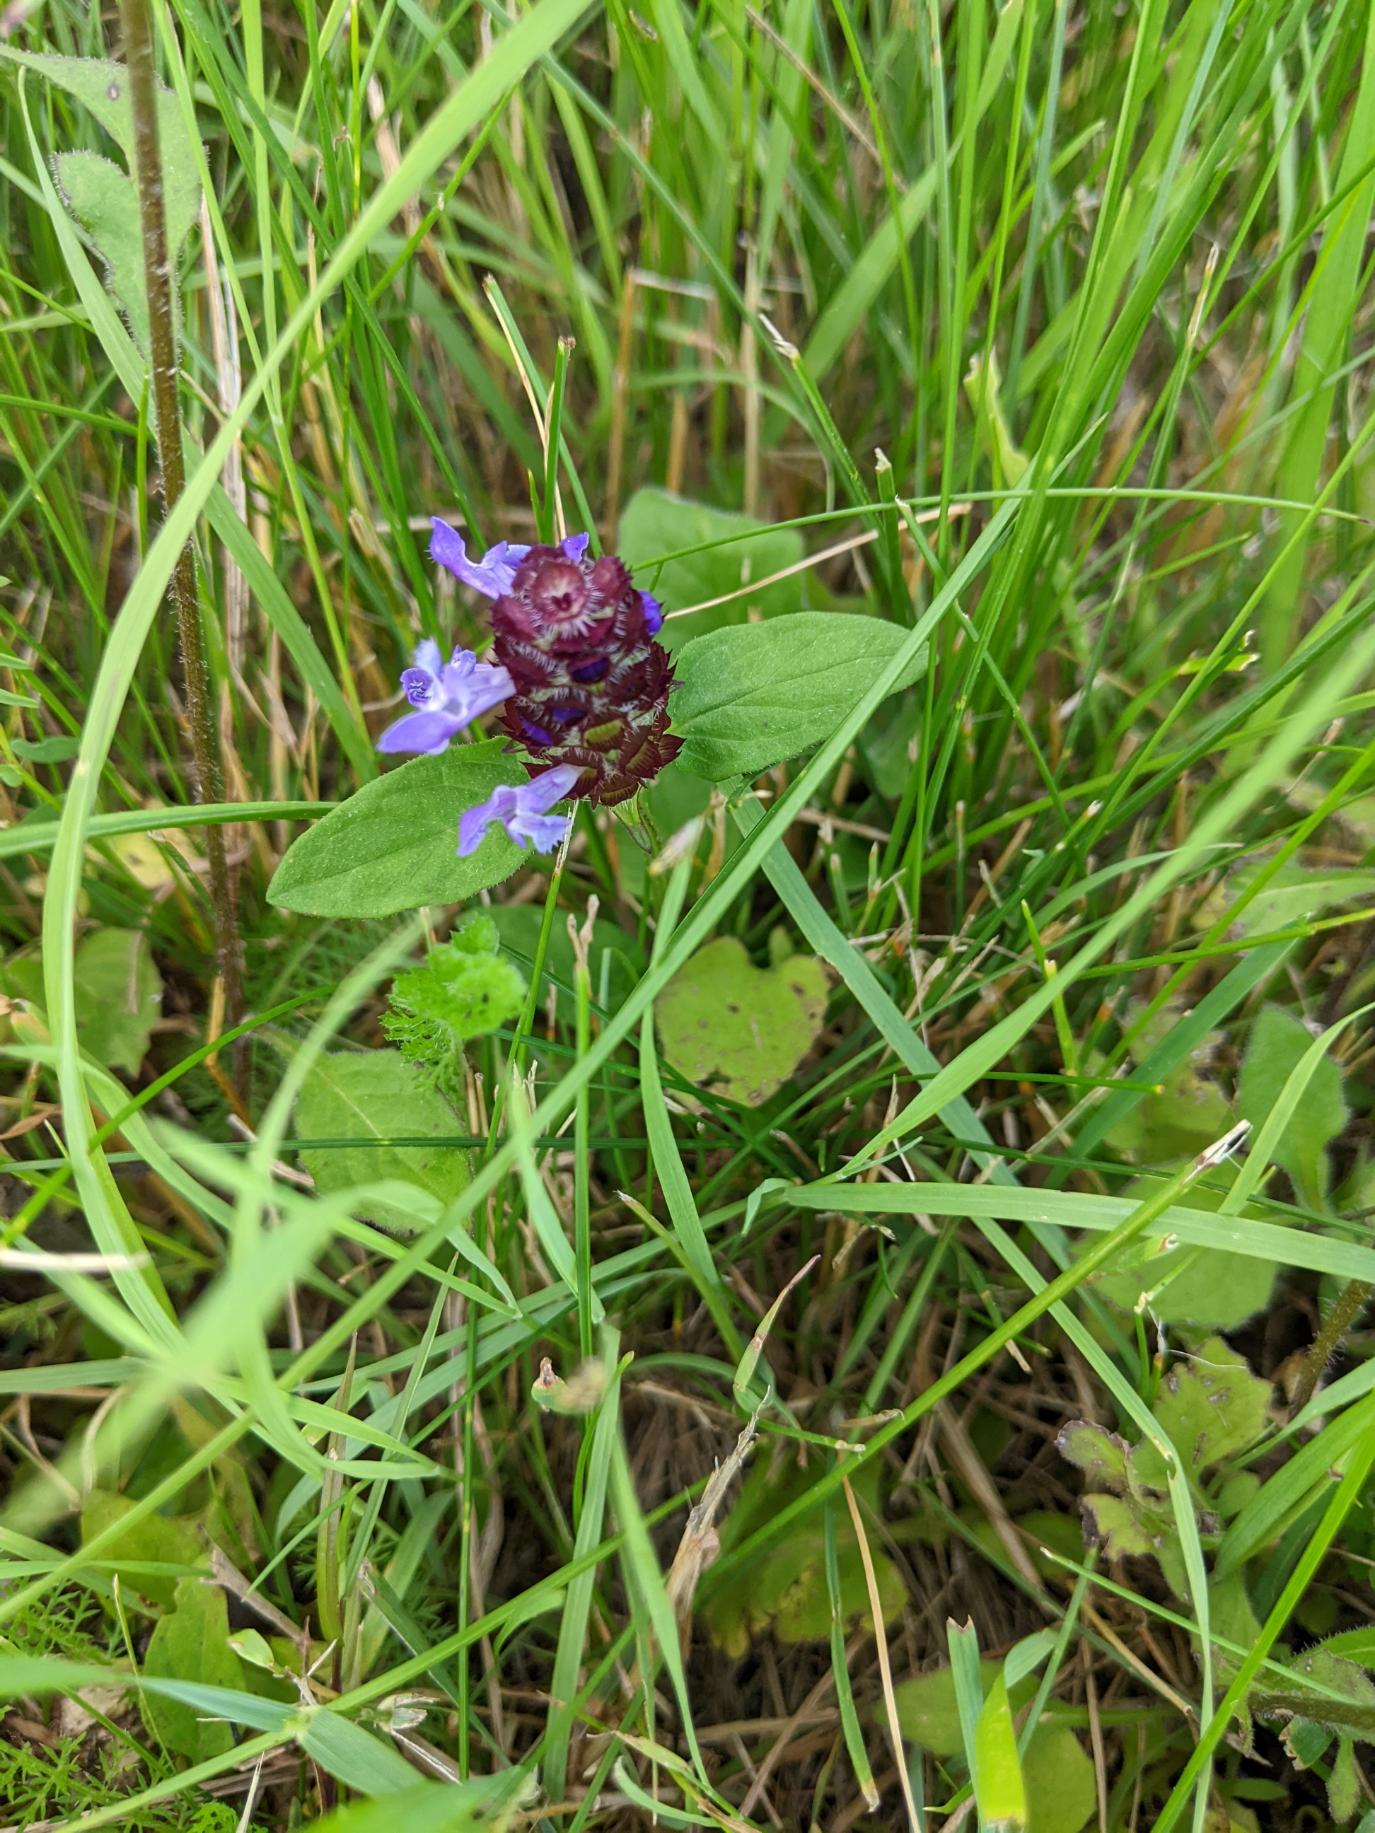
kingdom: Plantae
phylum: Tracheophyta
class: Magnoliopsida
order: Lamiales
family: Lamiaceae
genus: Prunella
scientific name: Prunella vulgaris
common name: Almindelig brunelle
